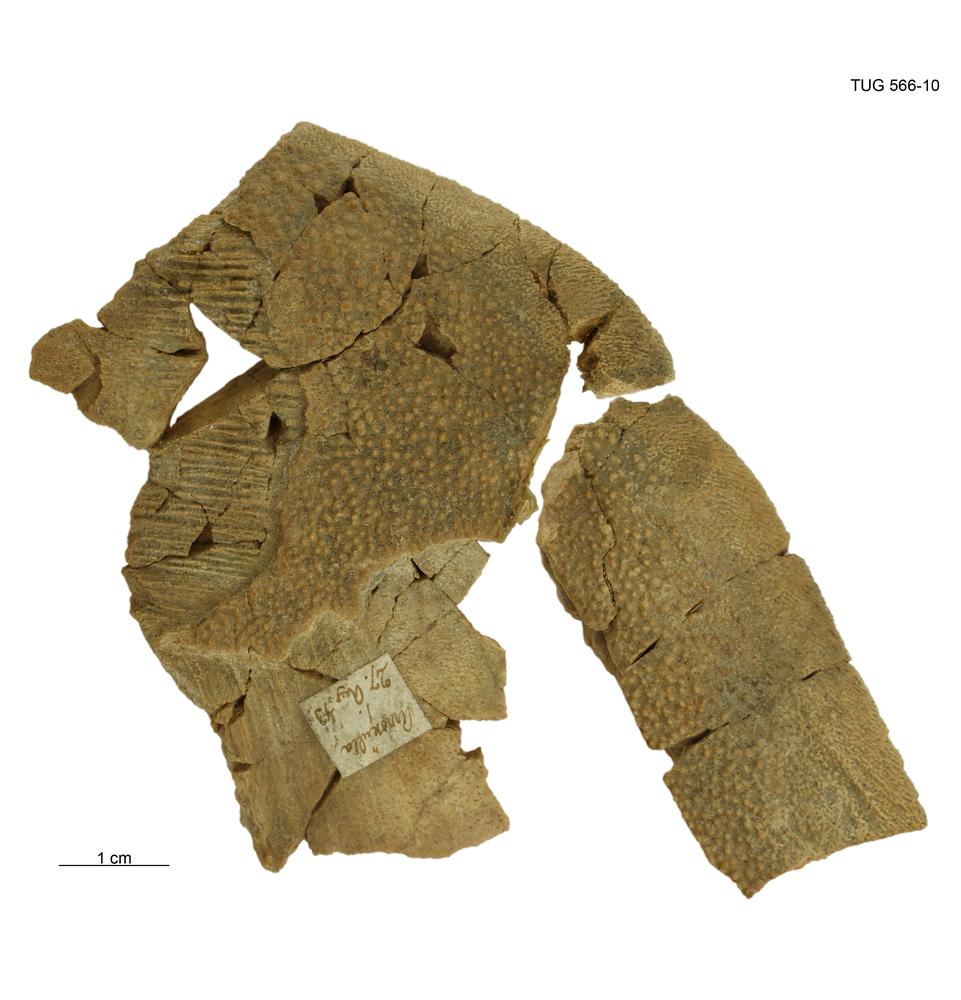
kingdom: Animalia
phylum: Chordata
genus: Homosteus
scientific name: Homosteus sulcatus
